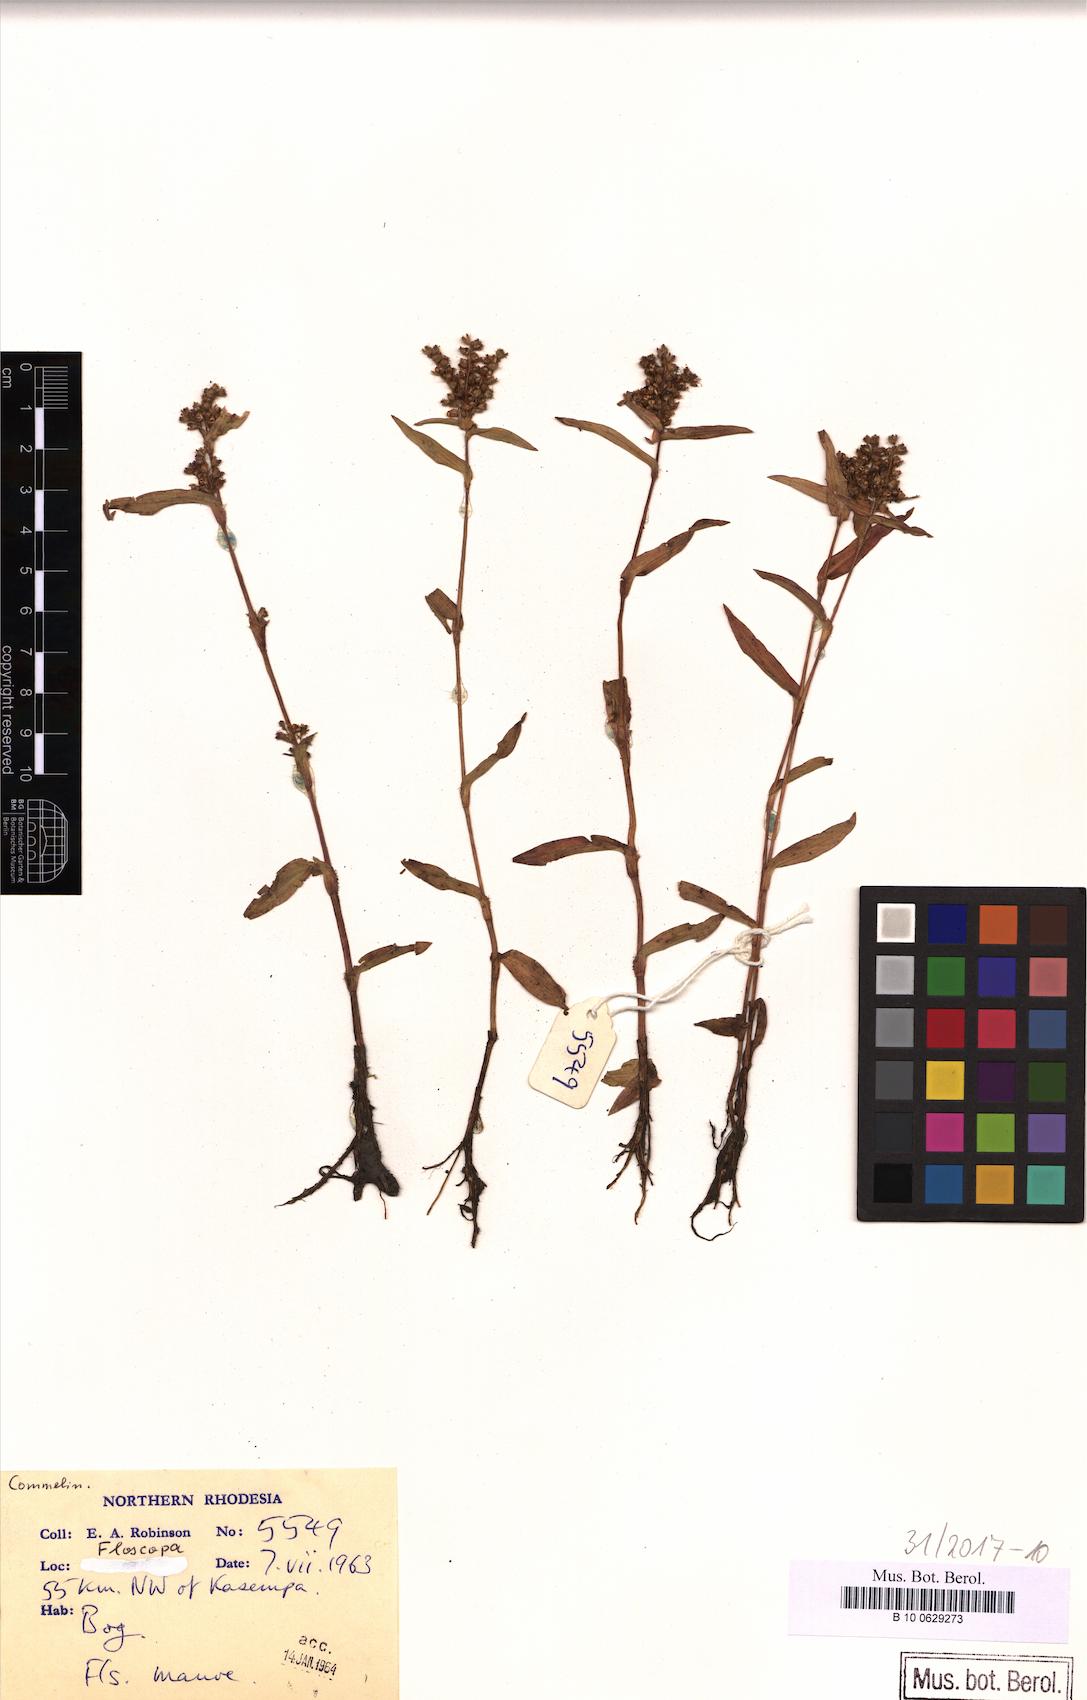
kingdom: Plantae
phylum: Tracheophyta
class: Liliopsida
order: Commelinales
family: Commelinaceae
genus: Floscopa
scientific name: Floscopa
